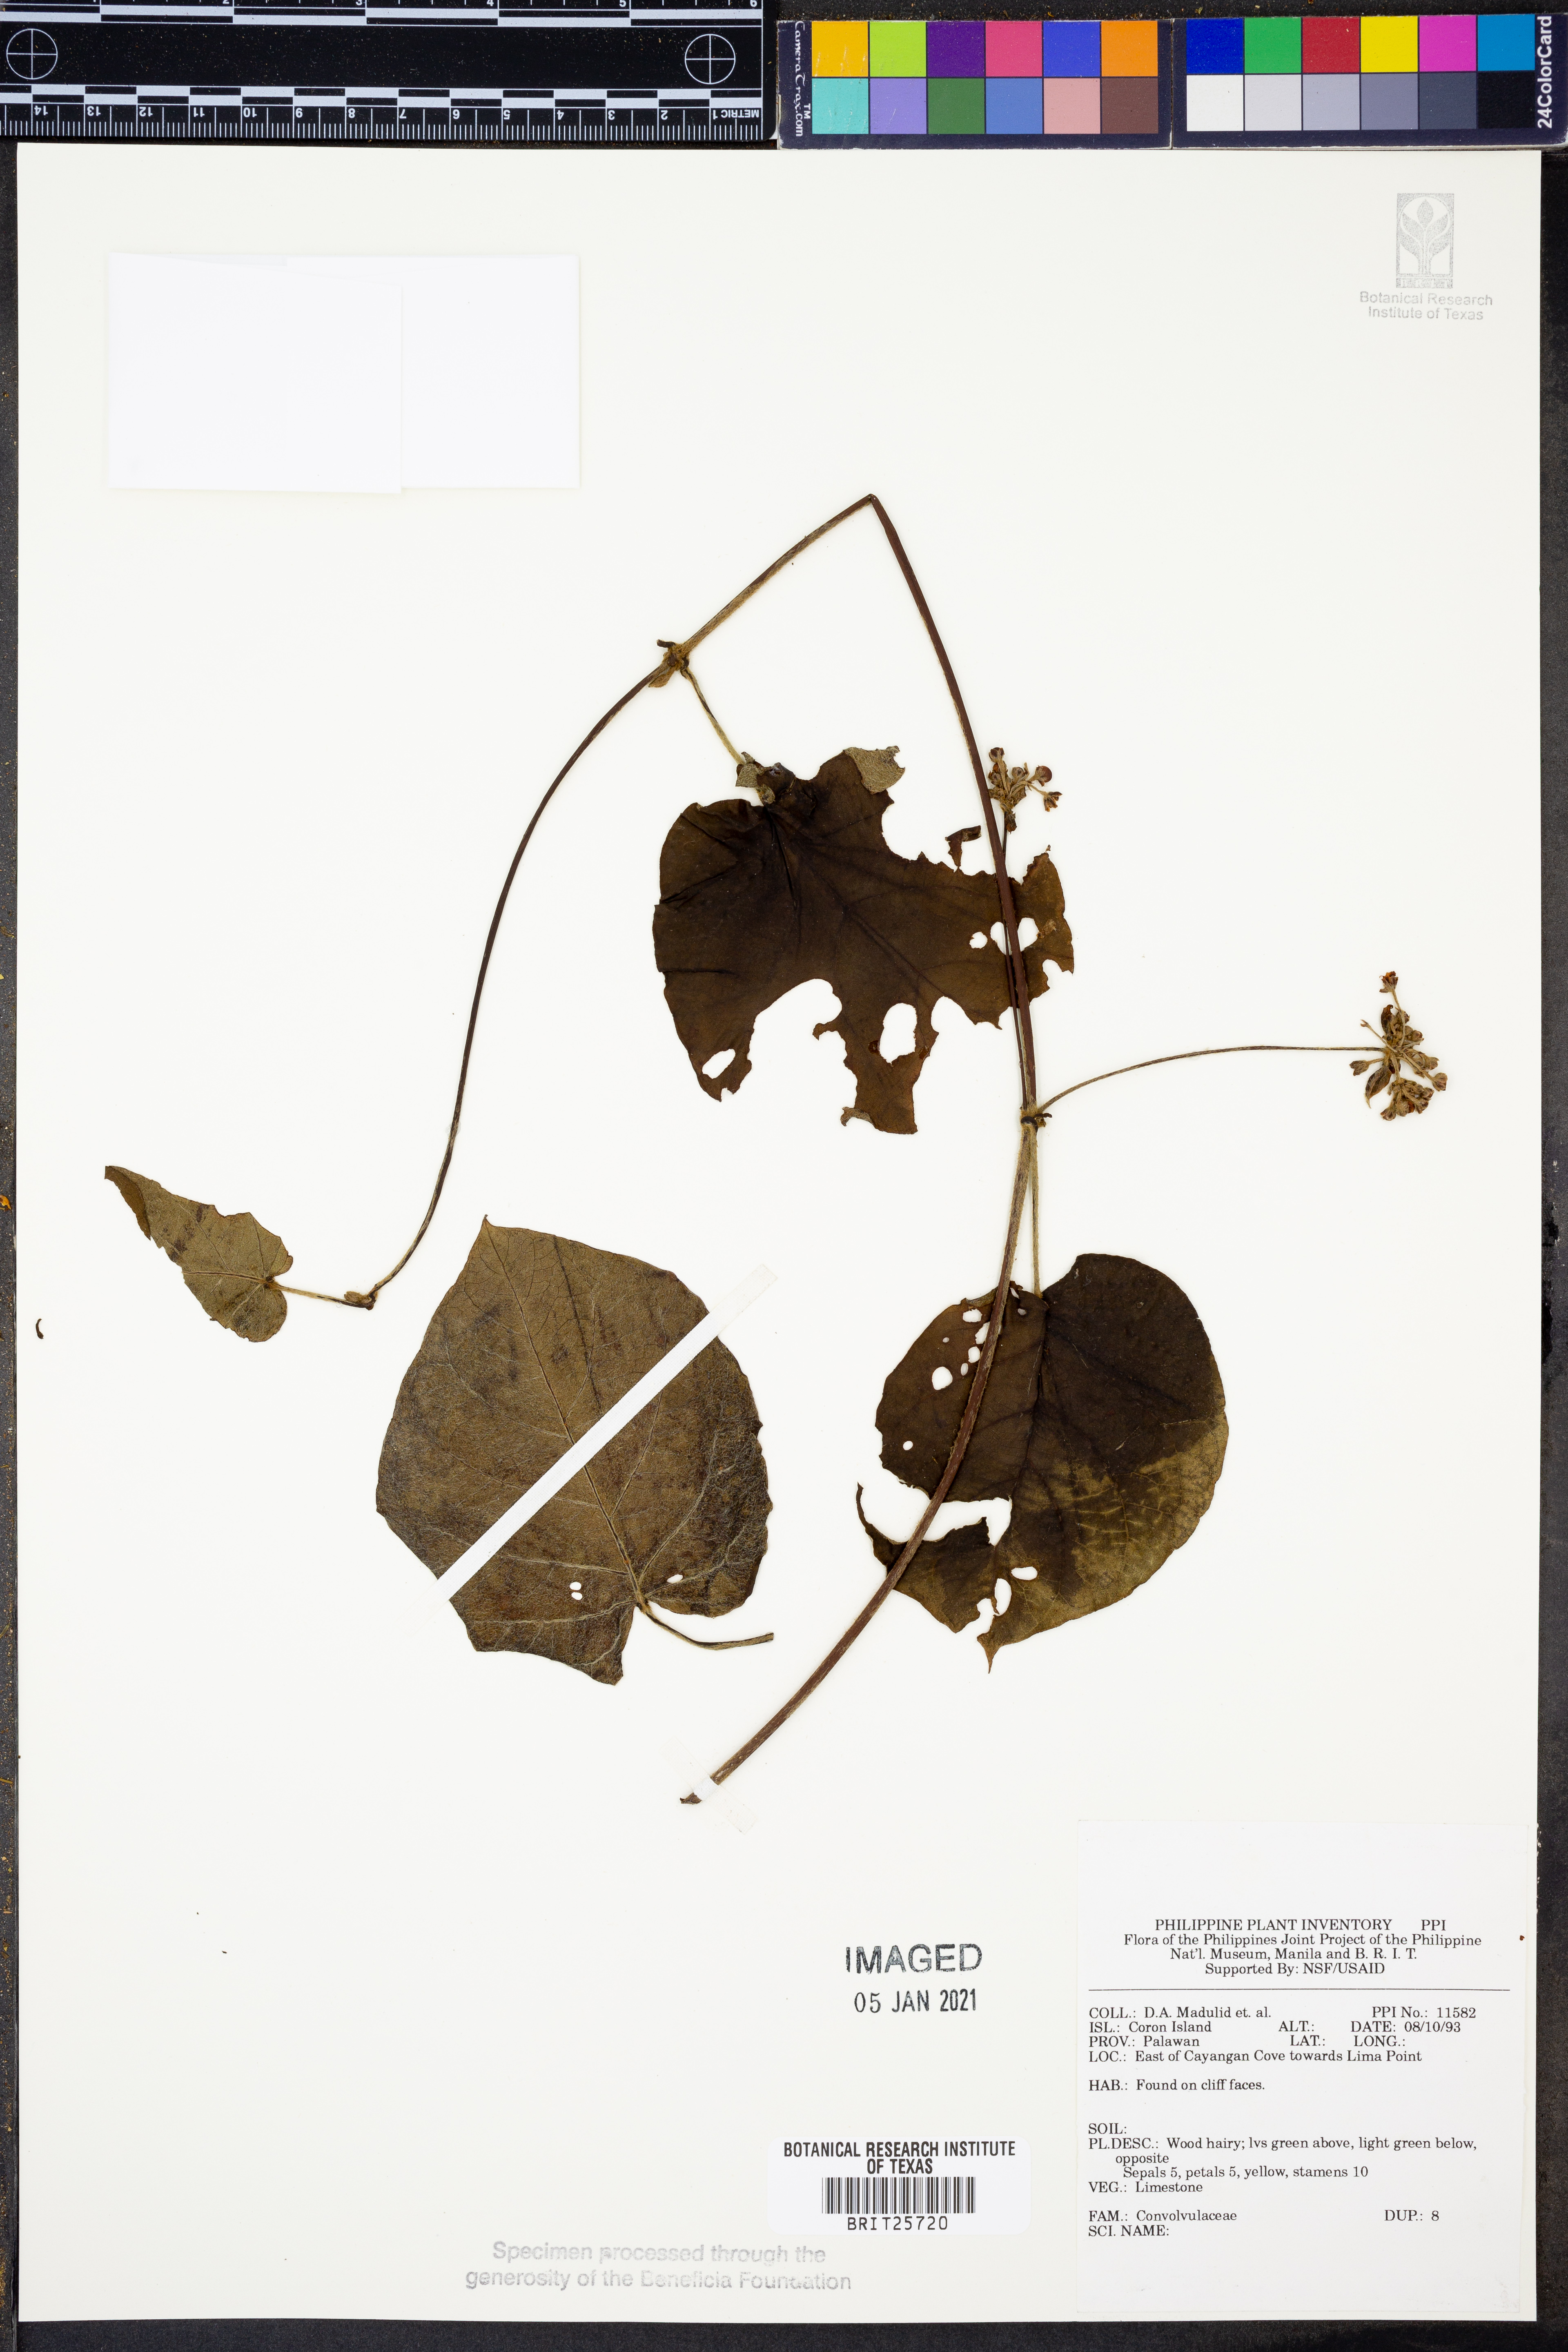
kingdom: Plantae
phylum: Tracheophyta
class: Magnoliopsida
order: Solanales
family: Convolvulaceae
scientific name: Convolvulaceae
